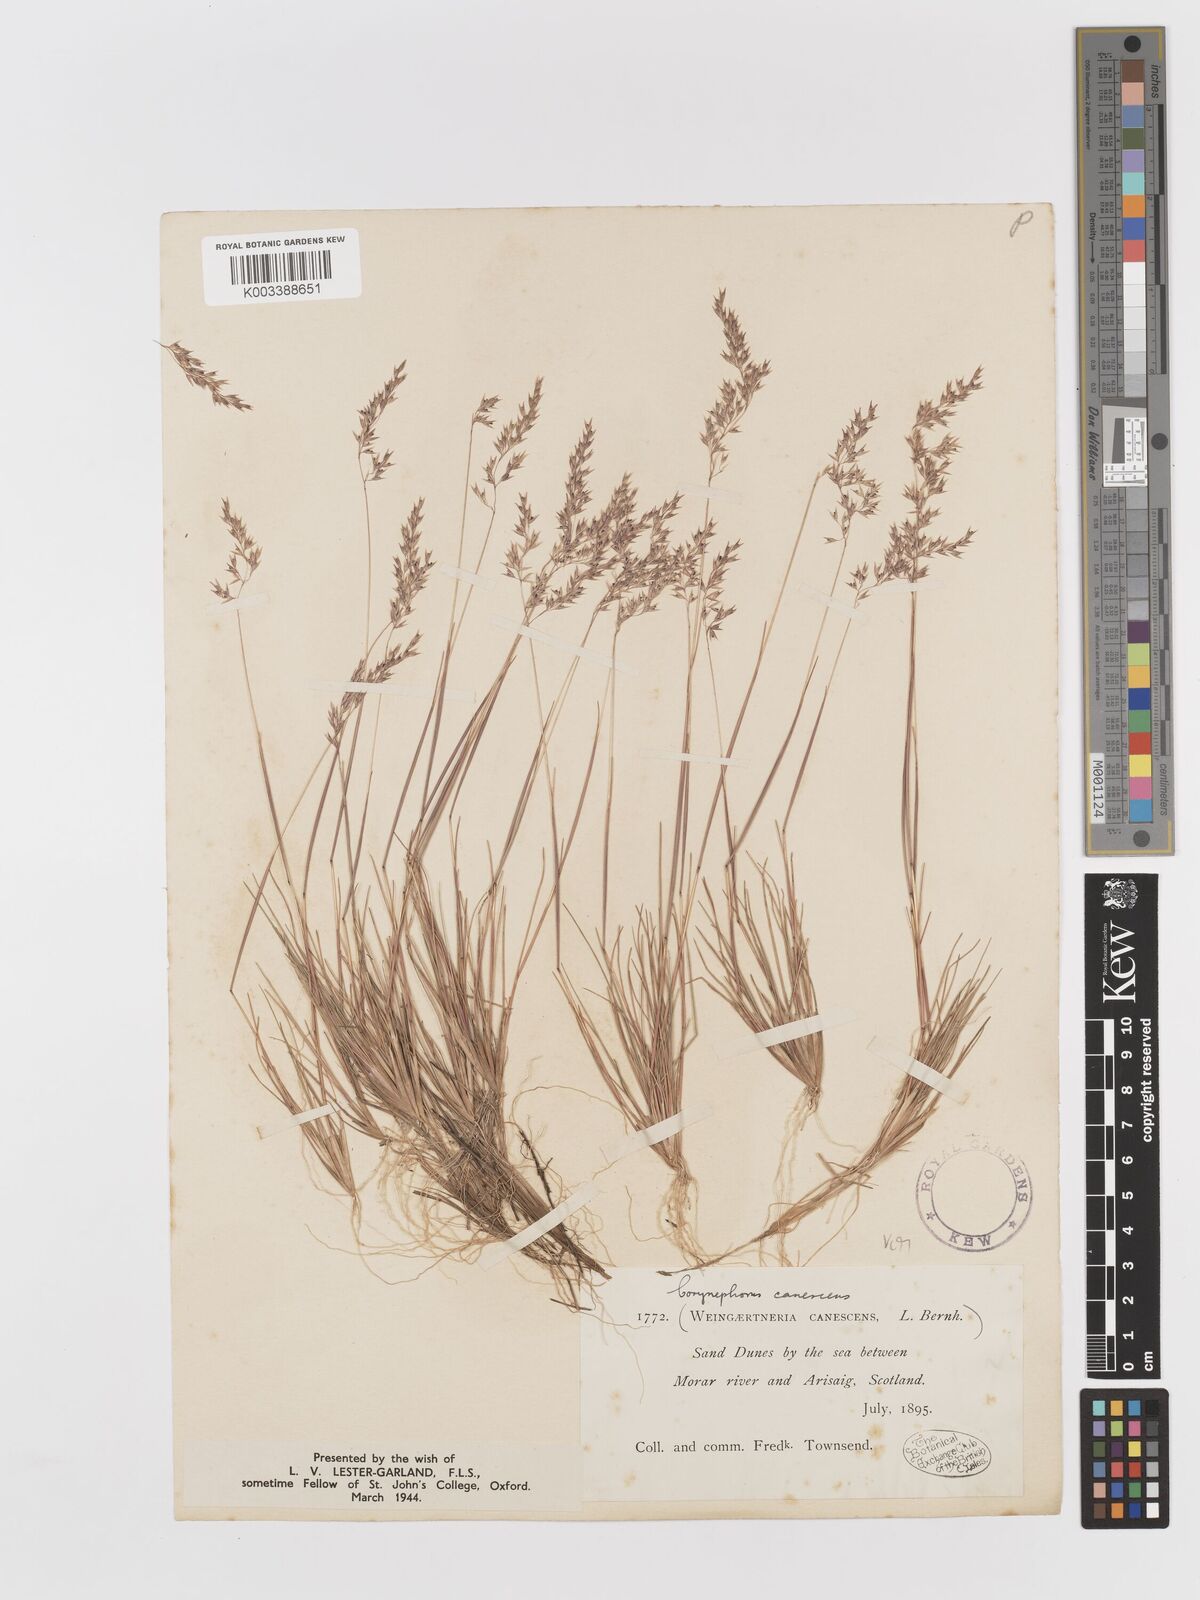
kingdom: Plantae
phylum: Tracheophyta
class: Liliopsida
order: Poales
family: Poaceae
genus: Corynephorus
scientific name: Corynephorus canescens
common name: Grey hair-grass
